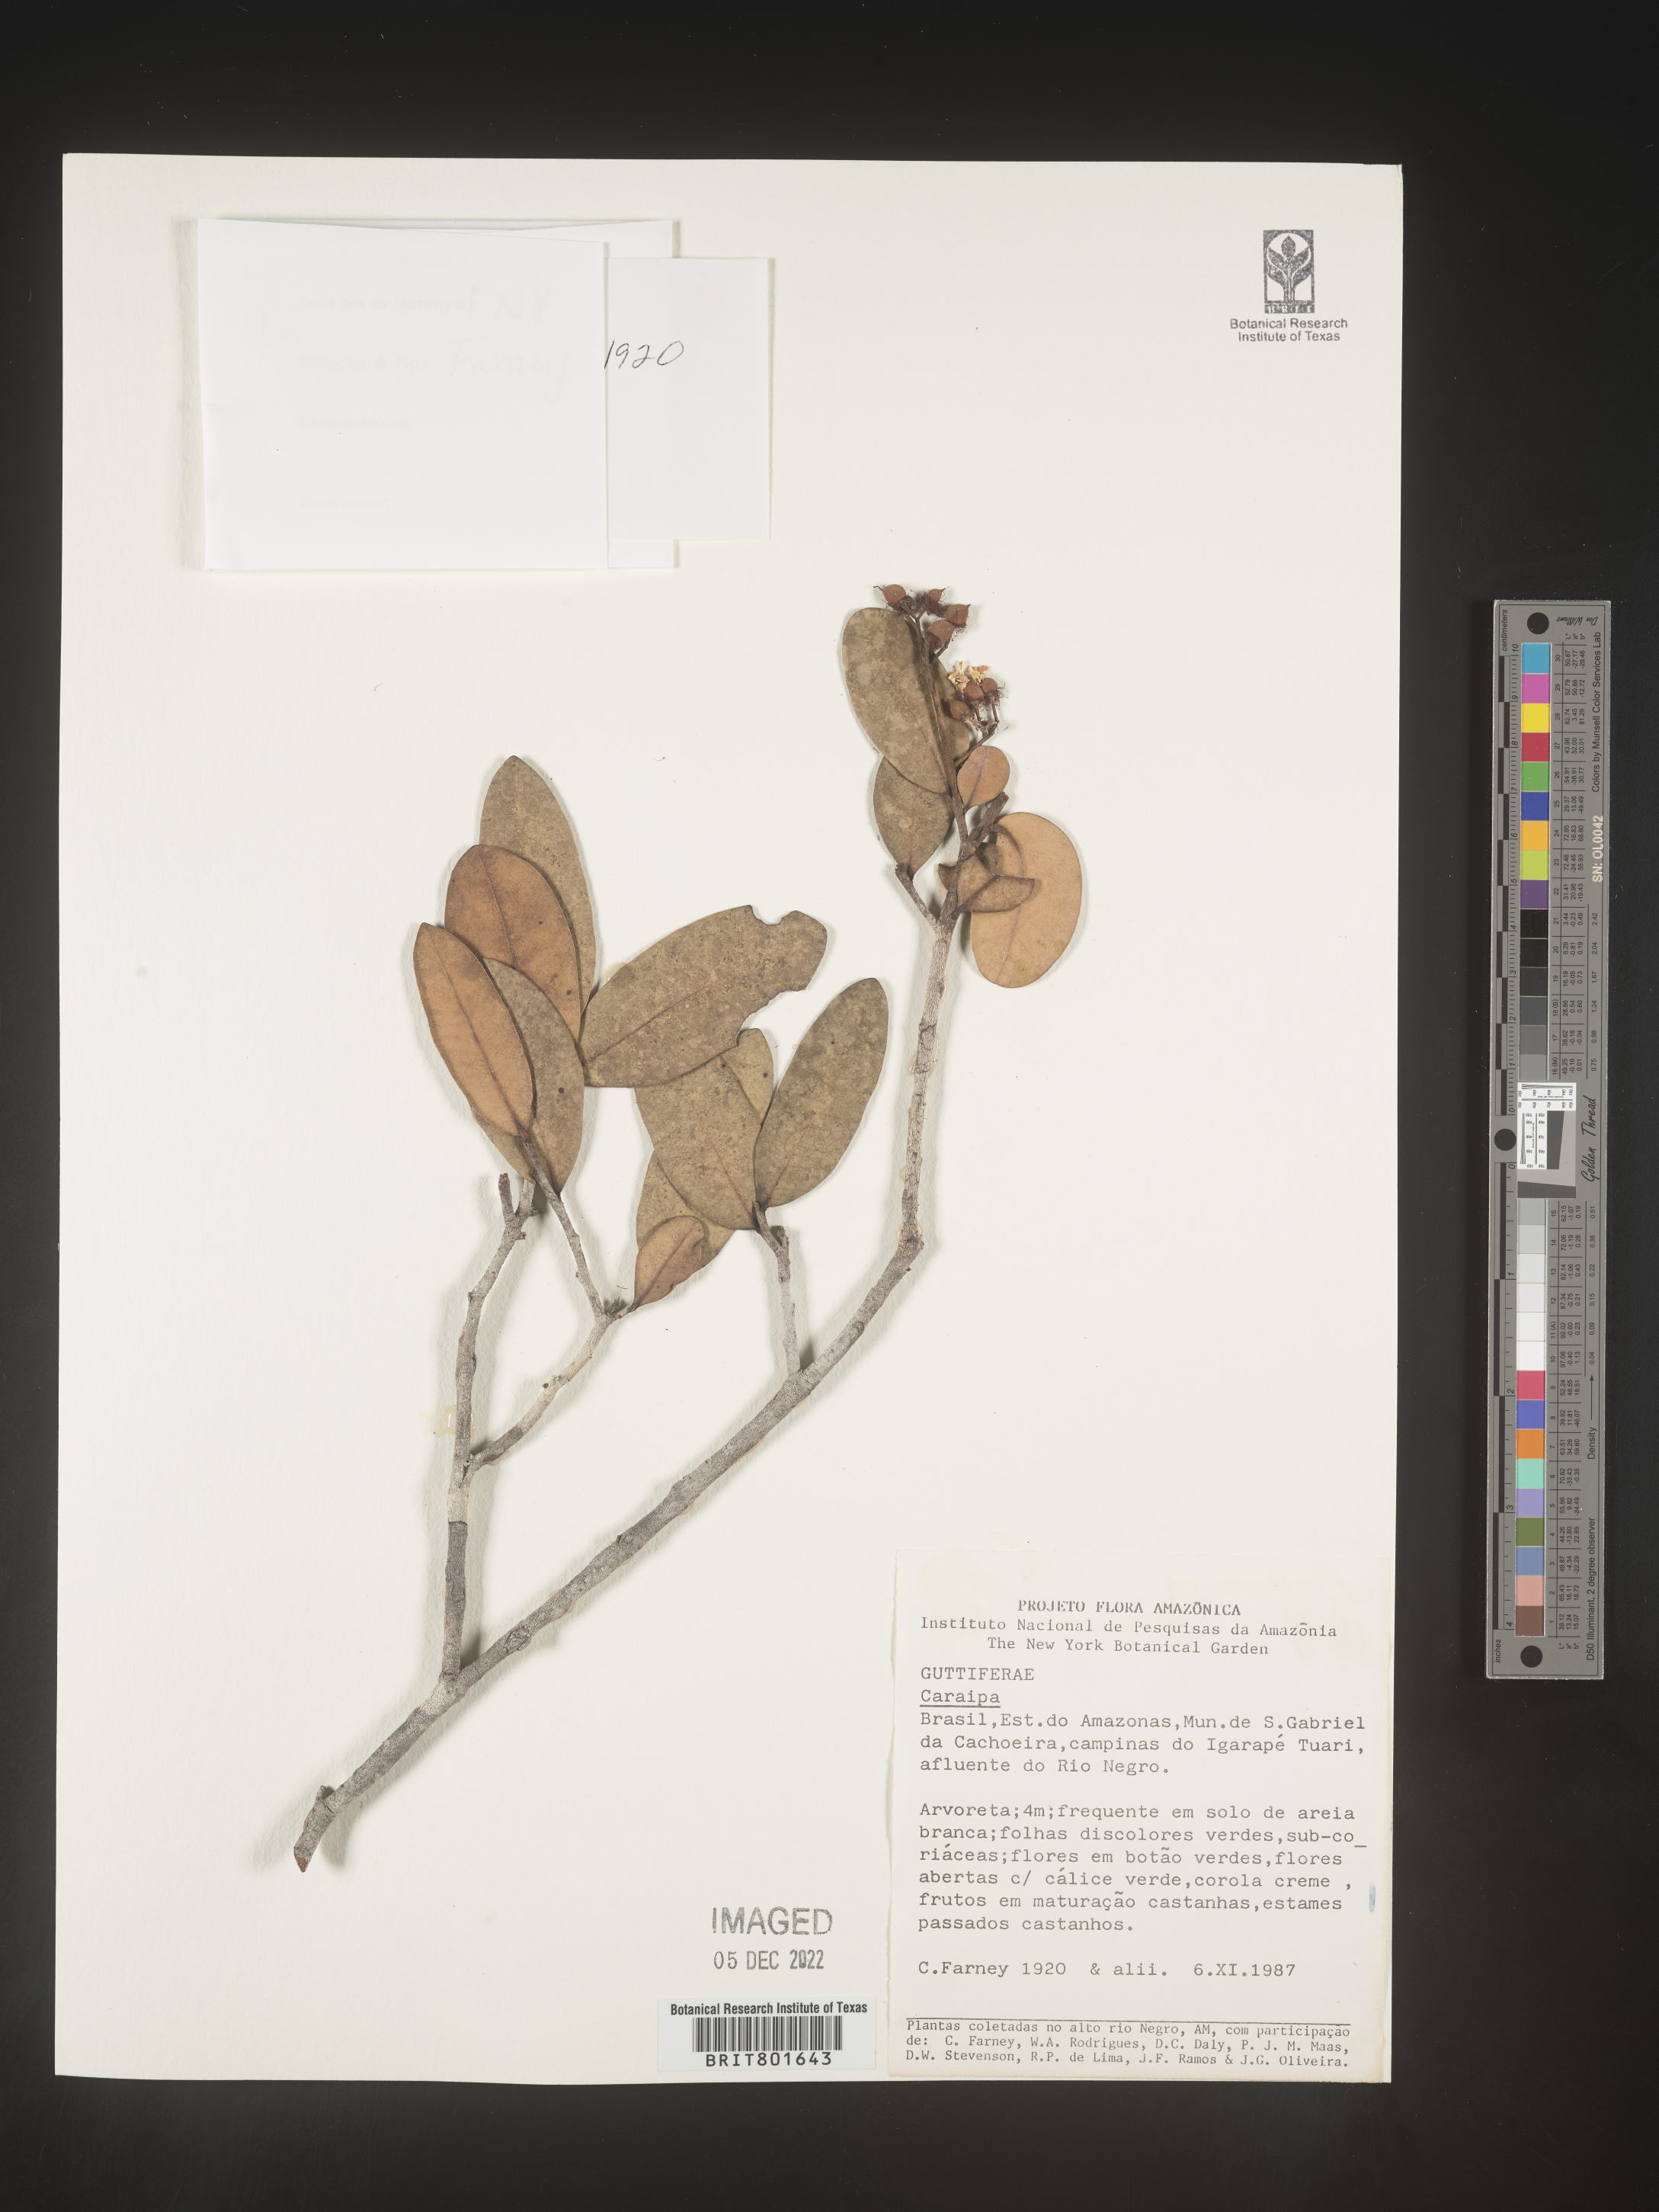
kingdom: Plantae
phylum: Tracheophyta
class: Magnoliopsida
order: Malpighiales
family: Calophyllaceae
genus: Caraipa
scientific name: Caraipa
